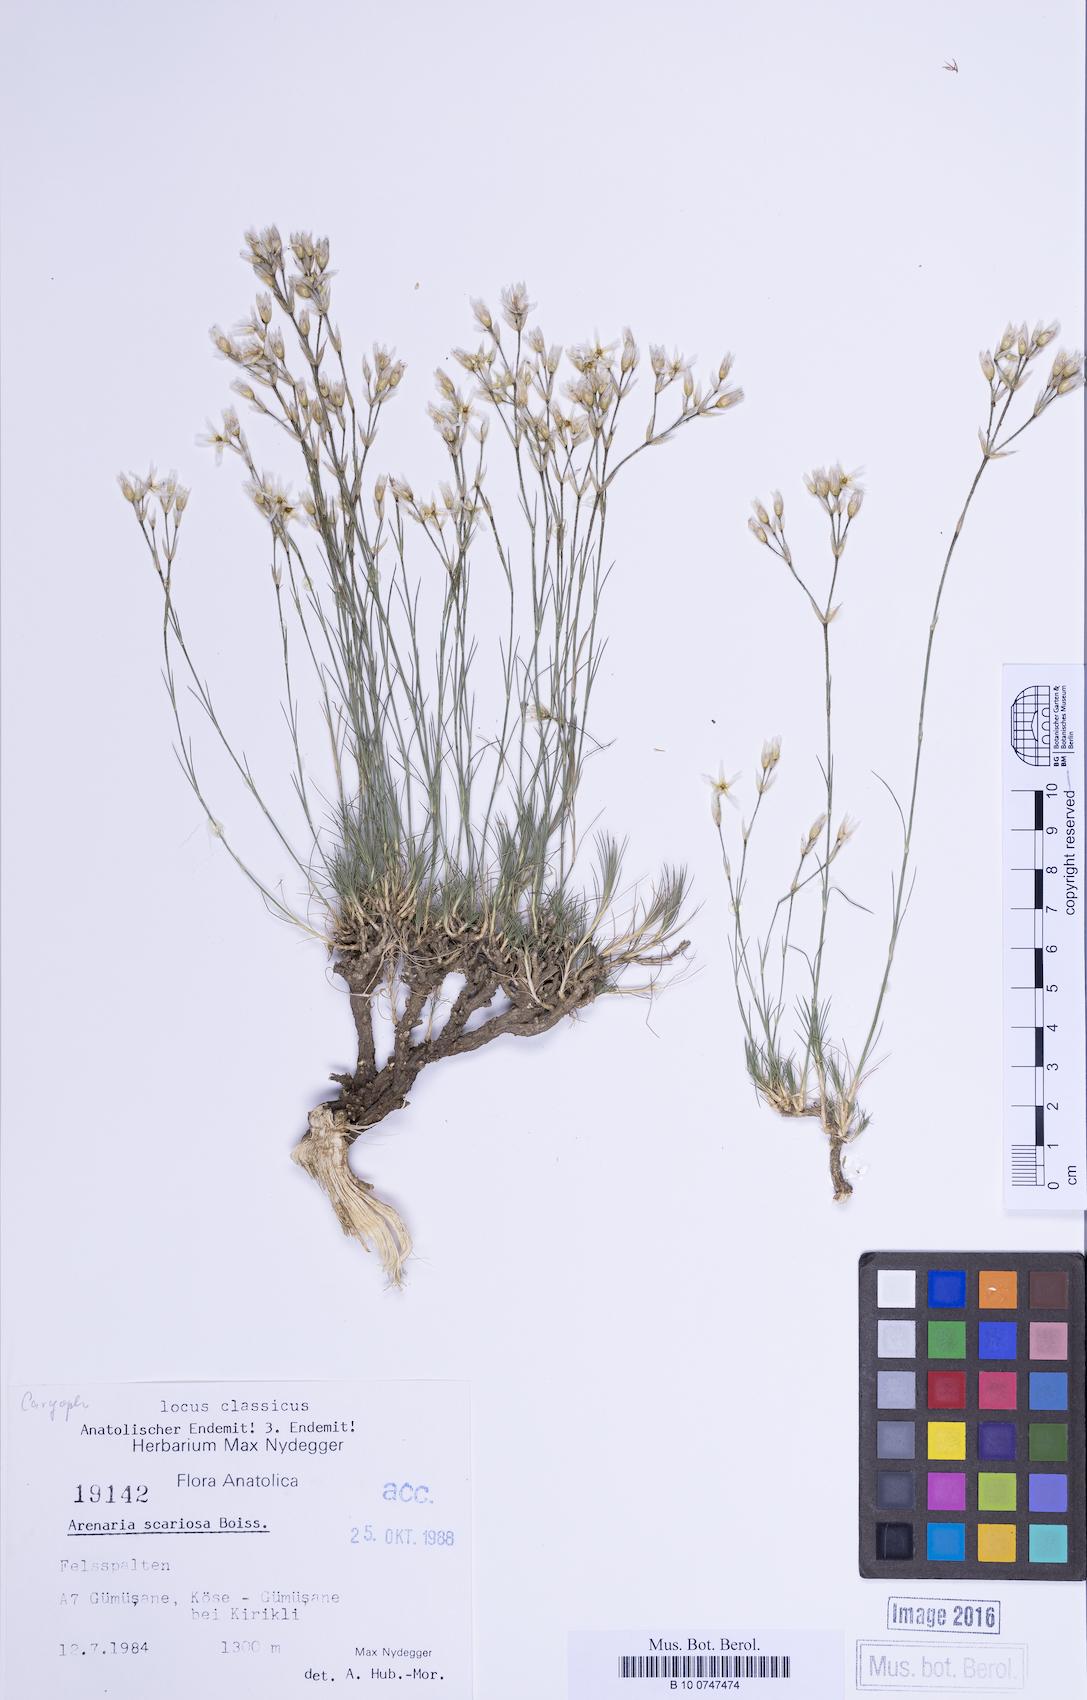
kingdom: Plantae
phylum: Tracheophyta
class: Magnoliopsida
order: Caryophyllales
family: Caryophyllaceae
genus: Eremogone
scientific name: Eremogone scariosa
